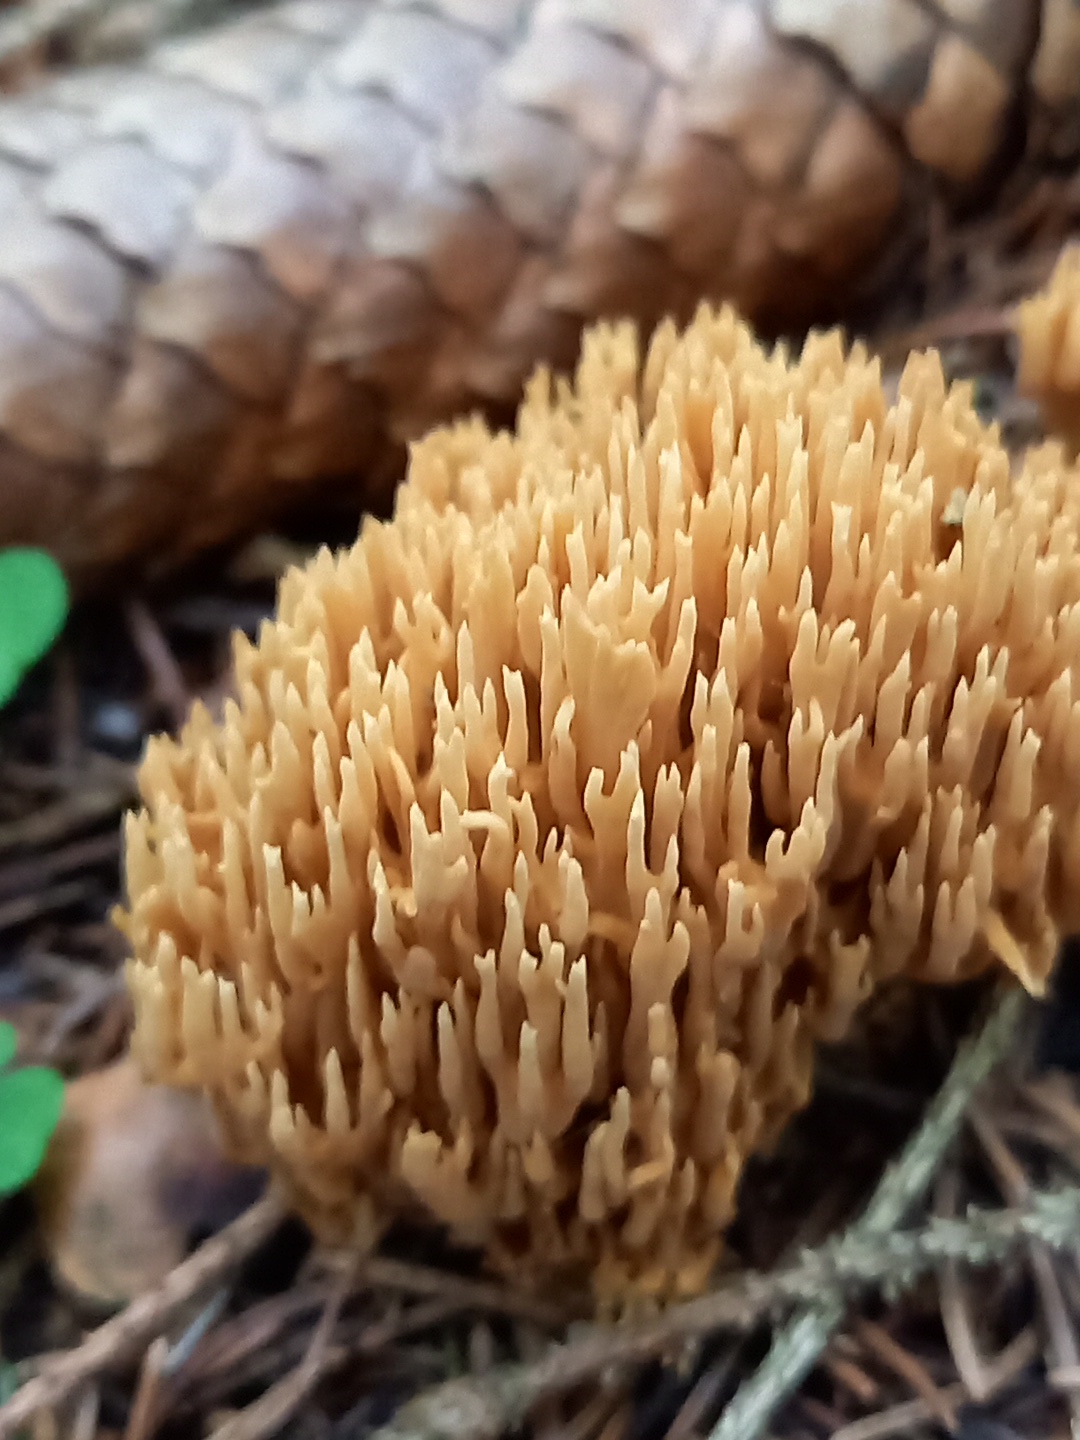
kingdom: Fungi
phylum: Basidiomycota
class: Agaricomycetes
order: Gomphales
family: Gomphaceae
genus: Phaeoclavulina
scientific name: Phaeoclavulina eumorpha
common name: gran-koralsvamp
